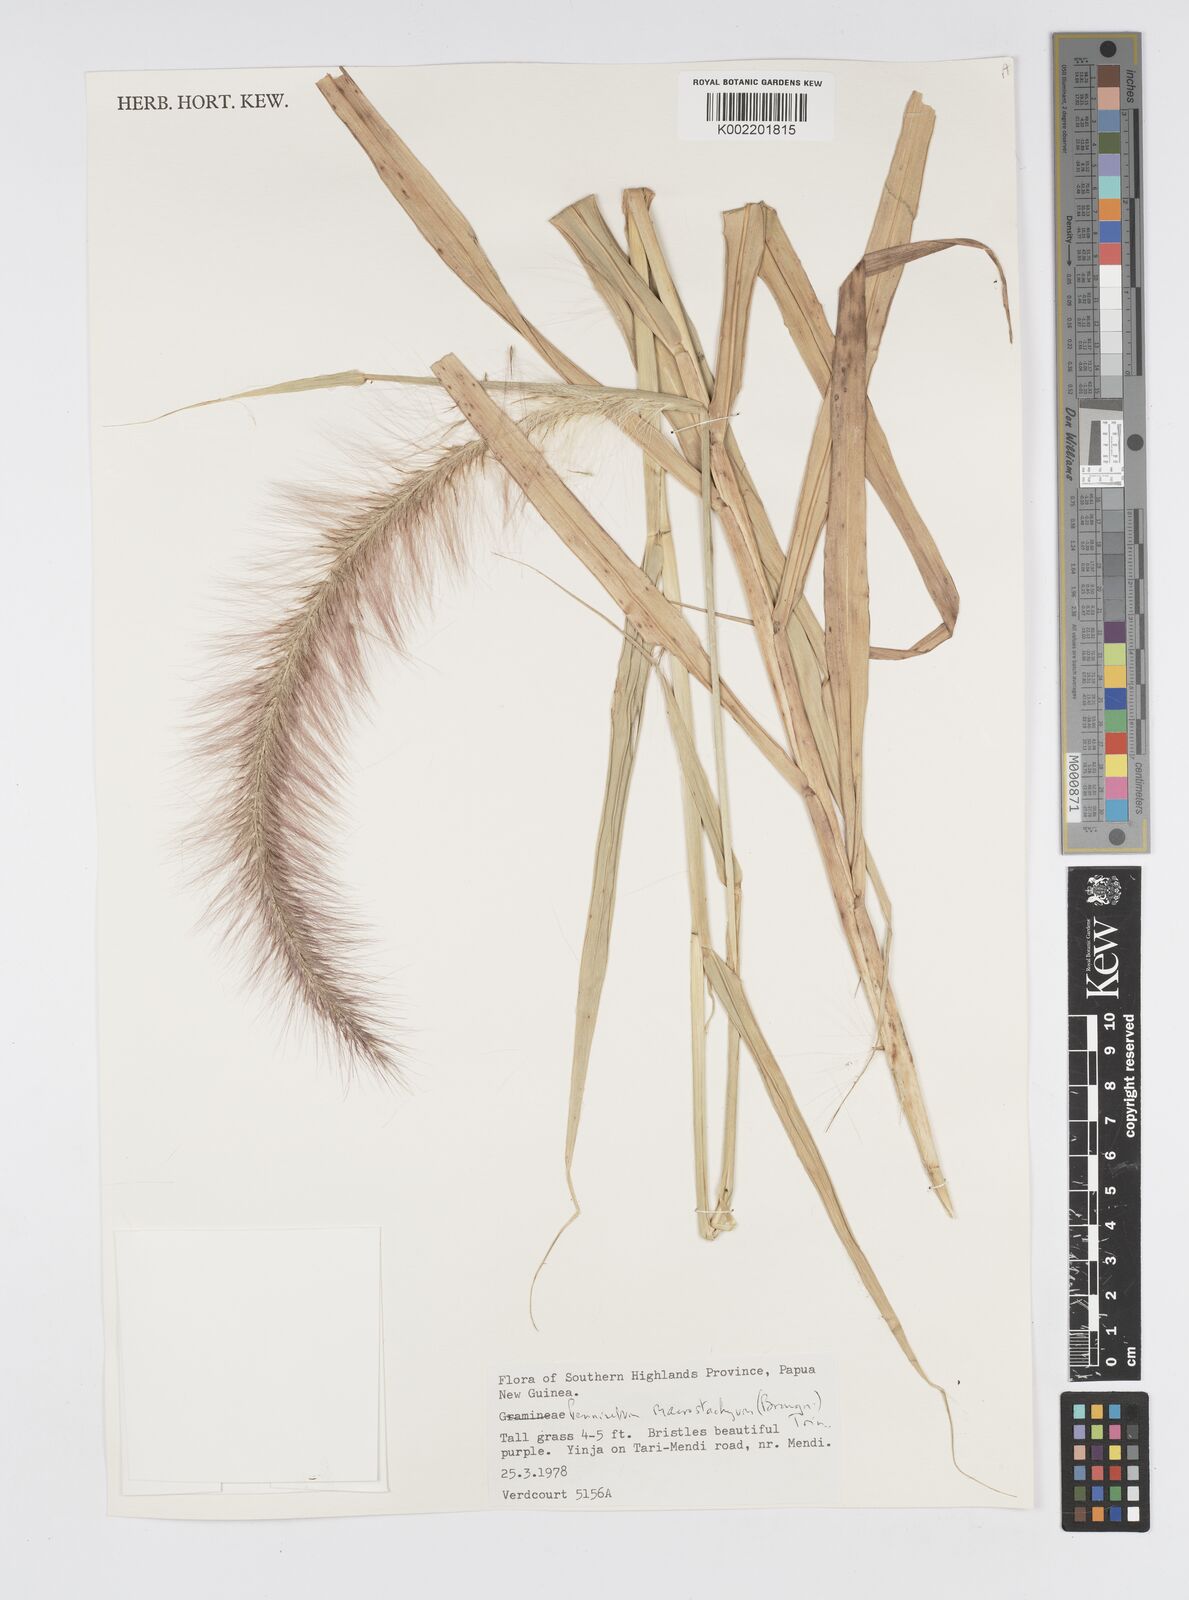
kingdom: Plantae
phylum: Tracheophyta
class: Liliopsida
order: Poales
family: Poaceae
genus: Cenchrus
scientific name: Cenchrus purpureus
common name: Elephant grass
